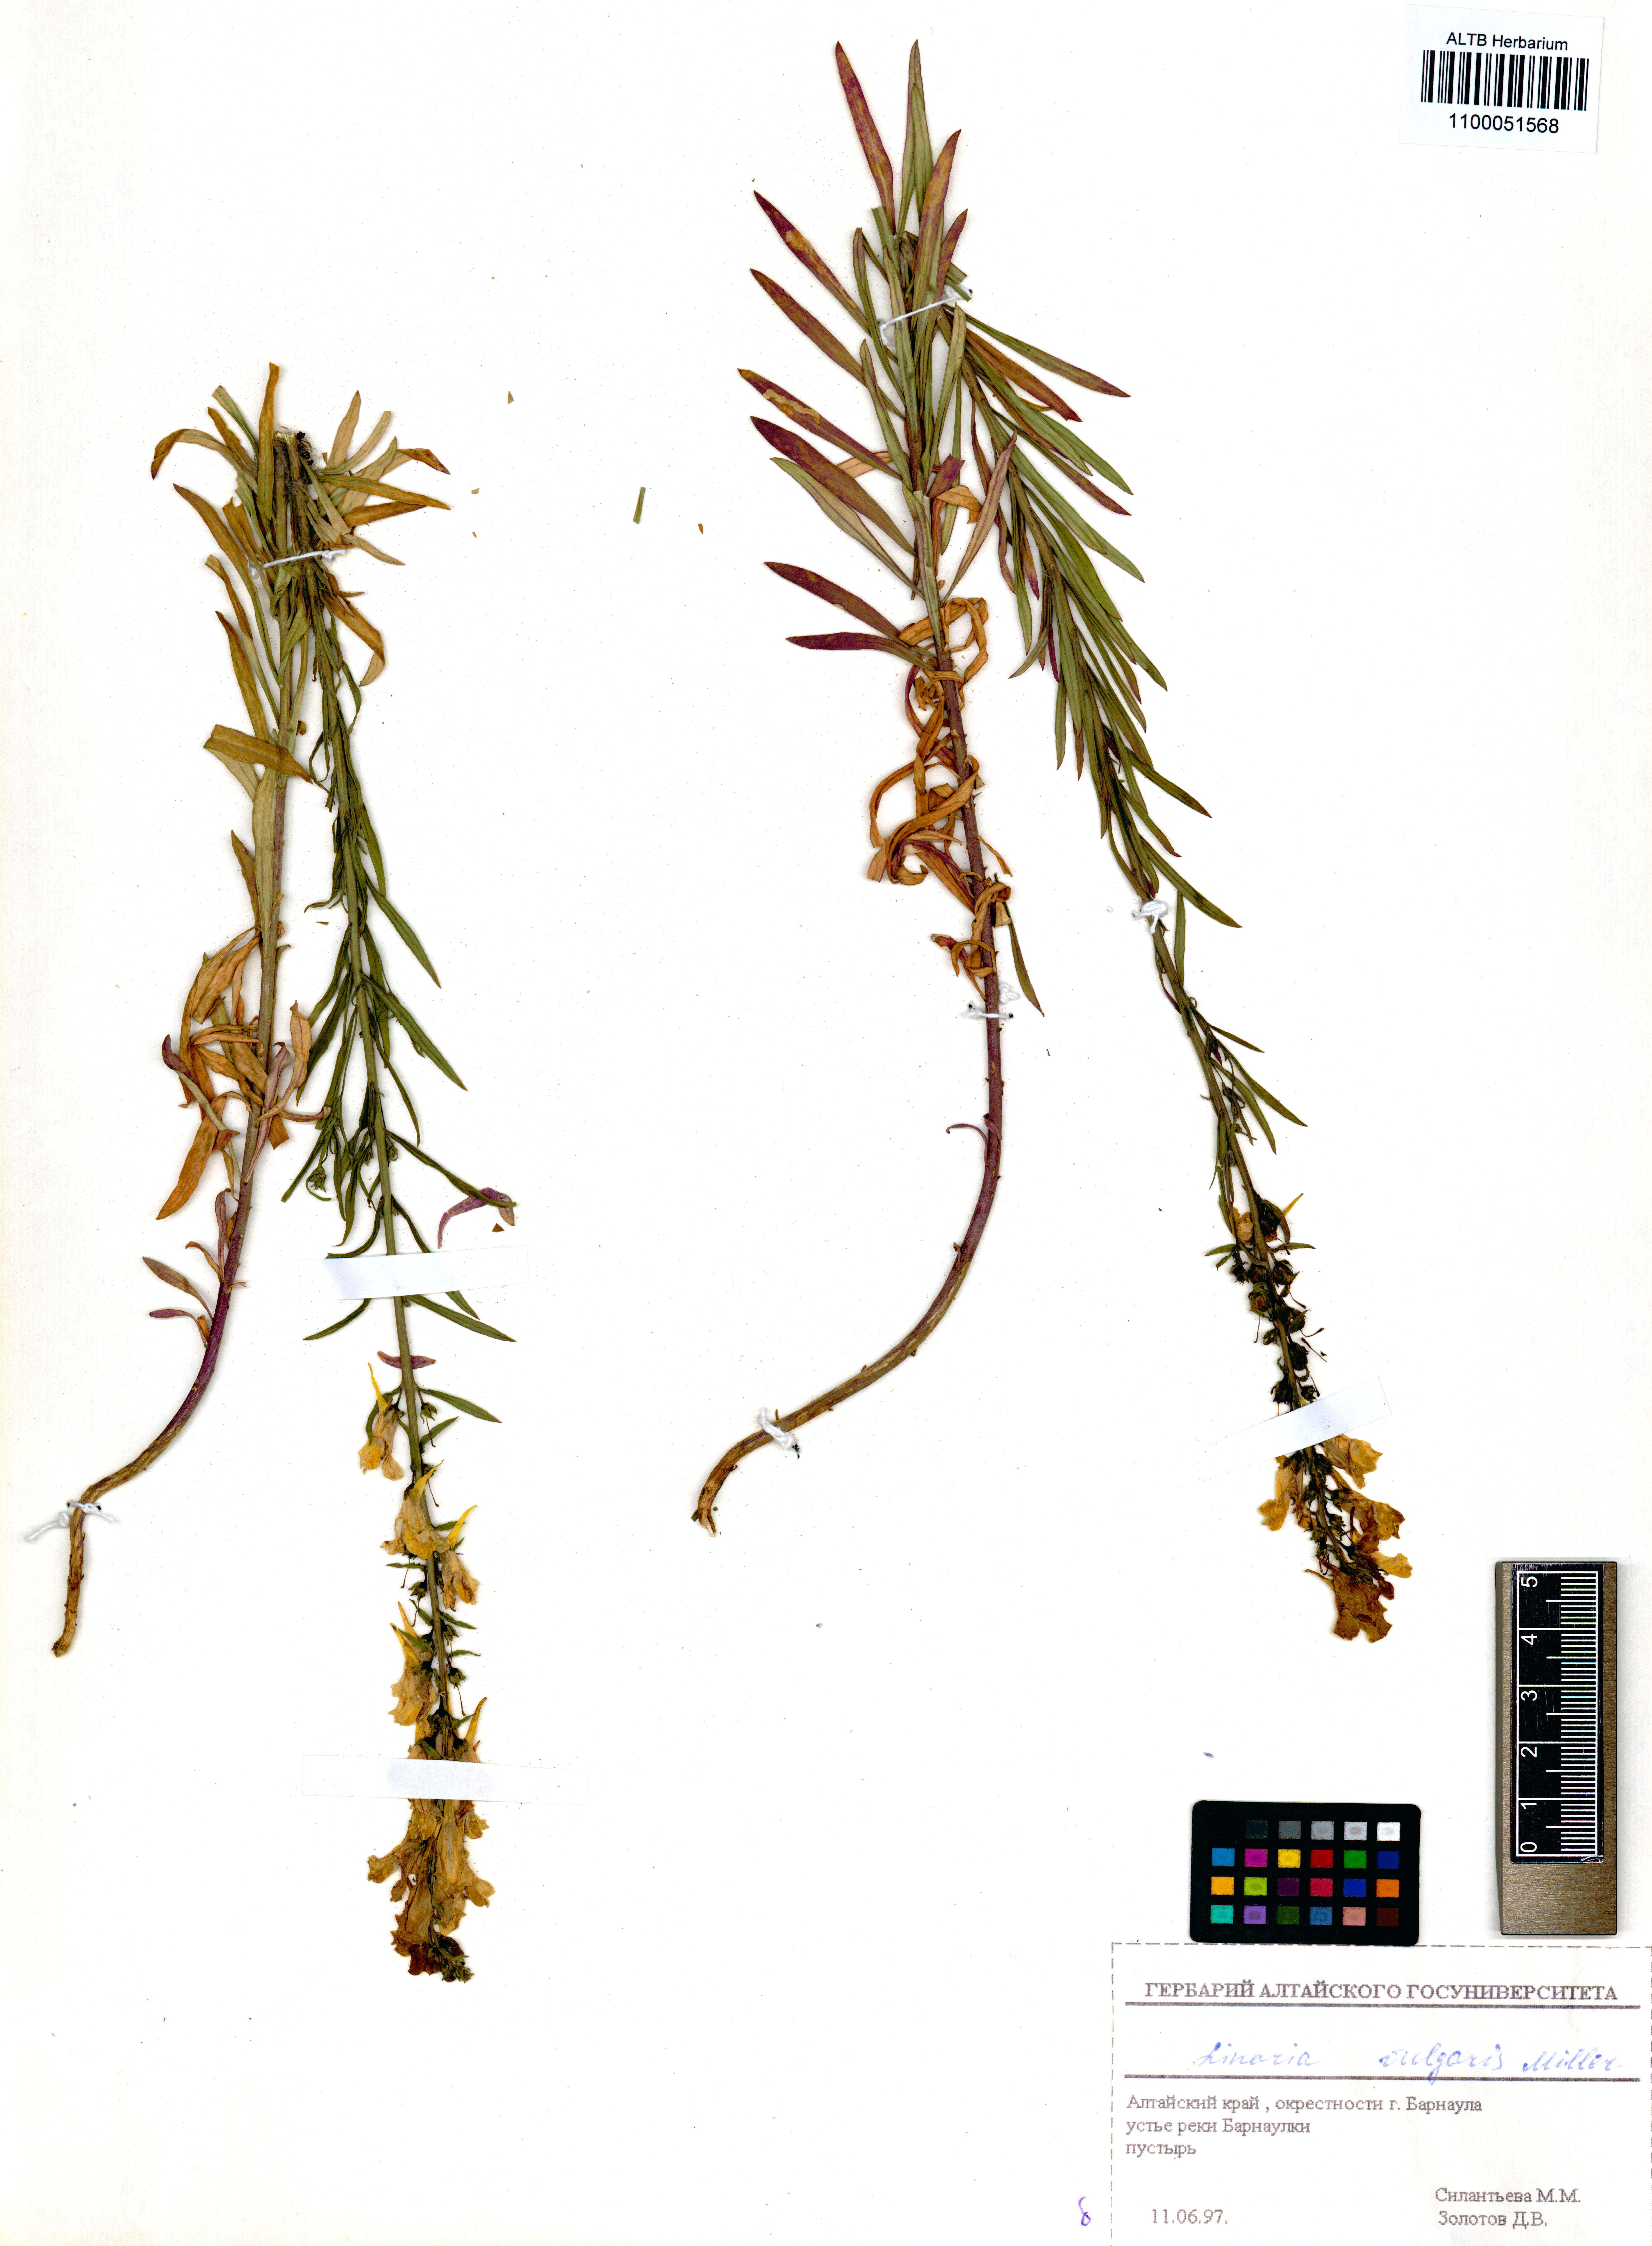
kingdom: Plantae
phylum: Tracheophyta
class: Magnoliopsida
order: Lamiales
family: Plantaginaceae
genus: Linaria
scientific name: Linaria vulgaris
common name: Butter and eggs
